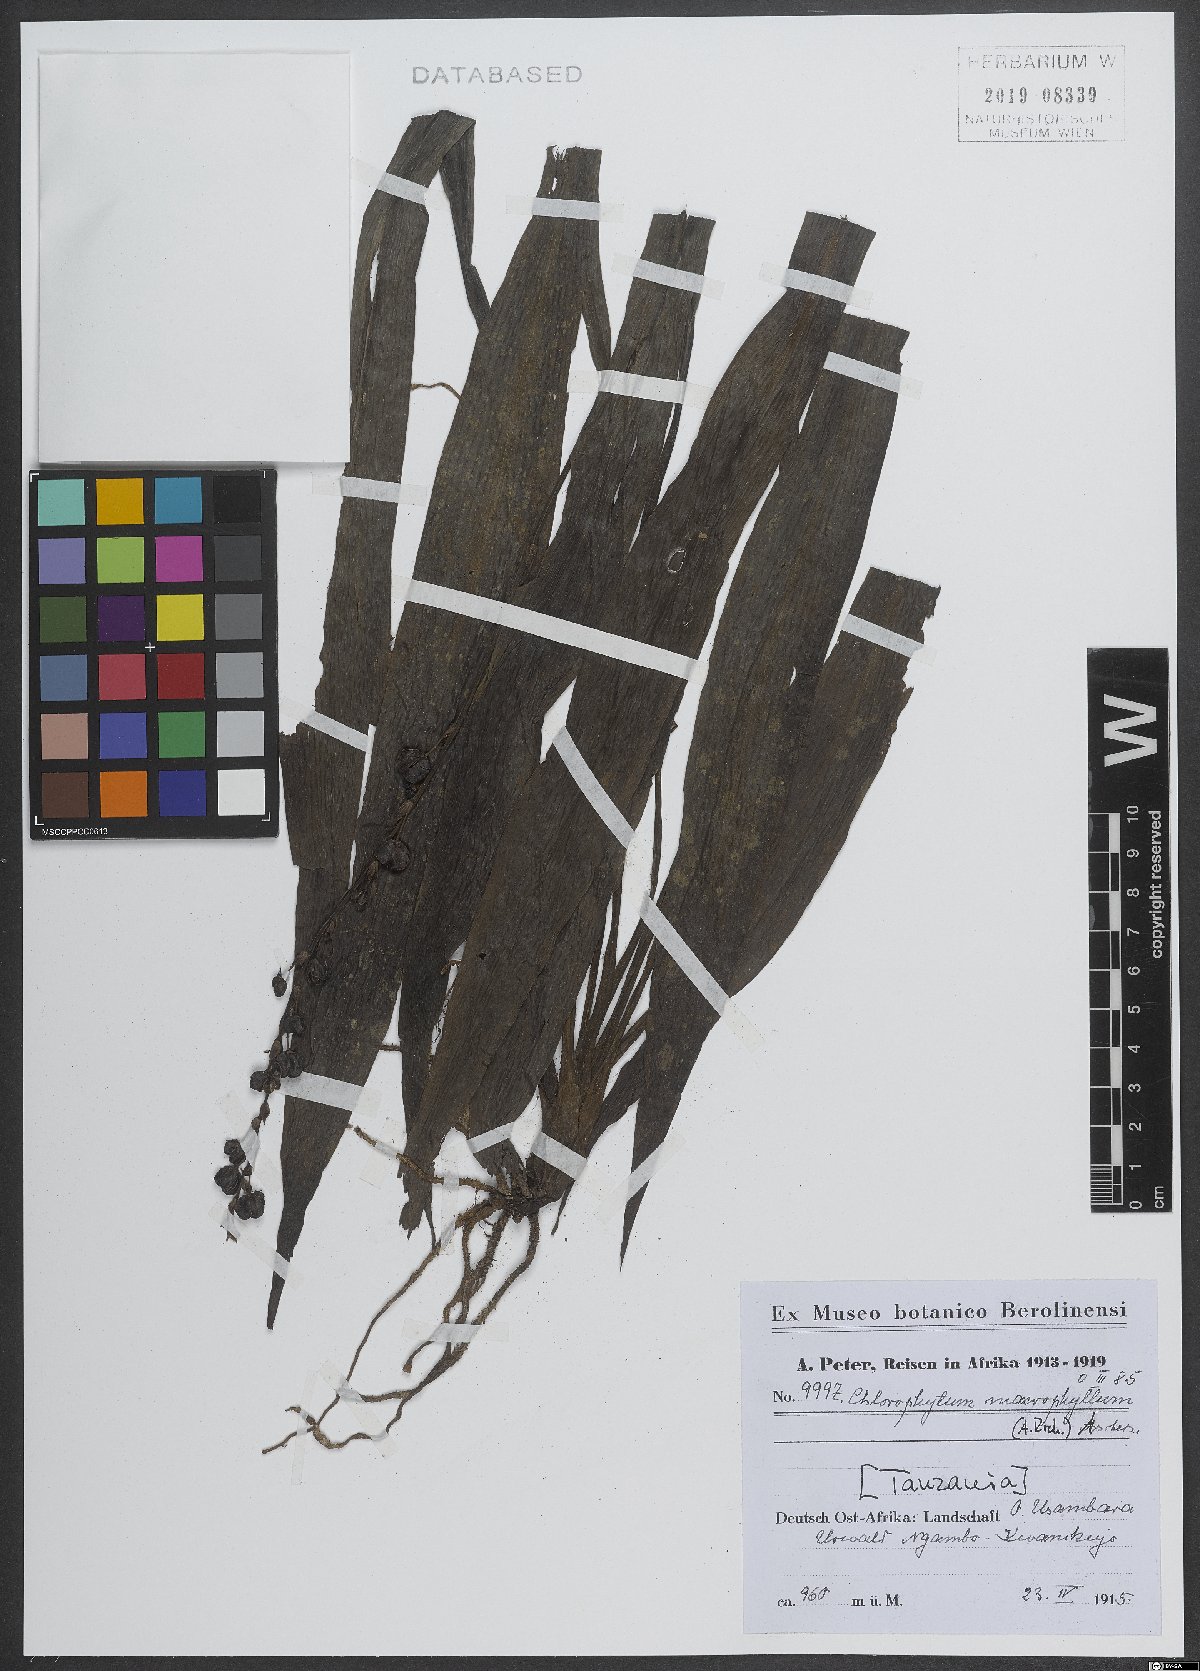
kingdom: Plantae
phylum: Tracheophyta
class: Liliopsida
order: Asparagales
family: Asparagaceae
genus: Chlorophytum
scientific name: Chlorophytum macrophyllum
